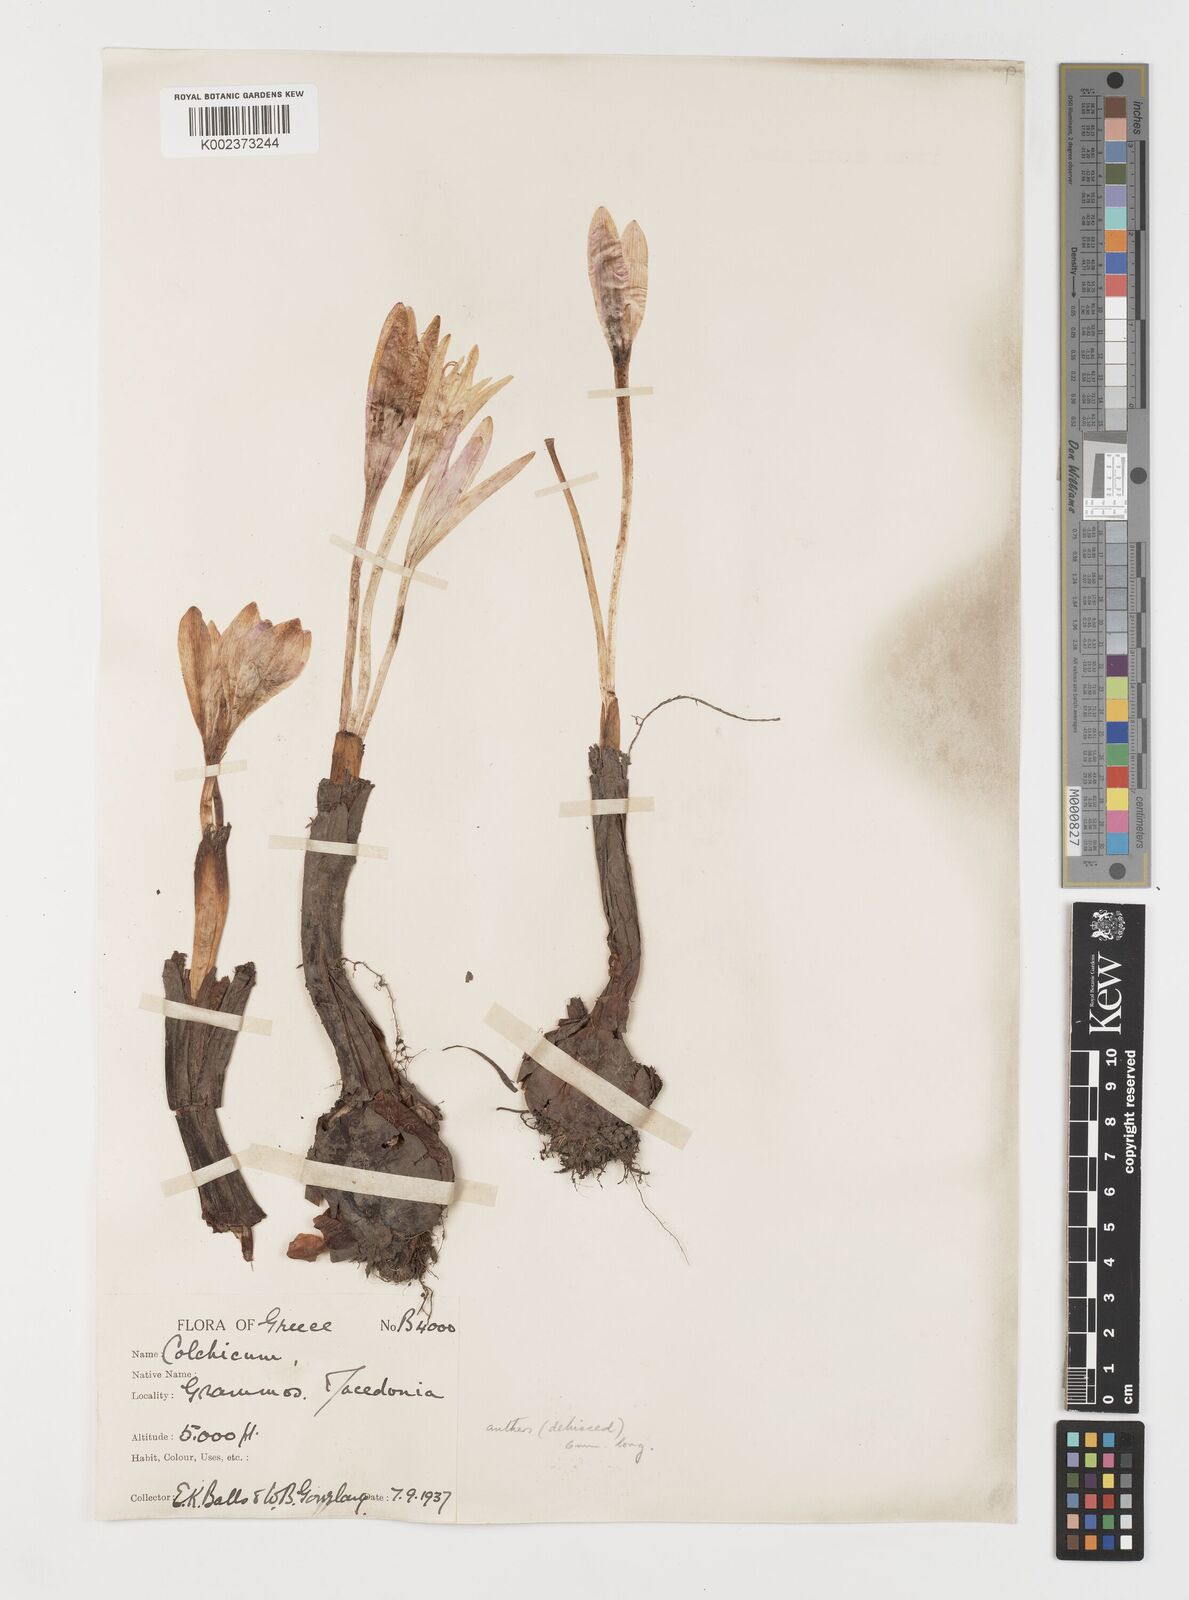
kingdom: Plantae
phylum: Tracheophyta
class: Liliopsida
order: Liliales
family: Colchicaceae
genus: Colchicum
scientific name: Colchicum autumnale
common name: Autumn crocus
